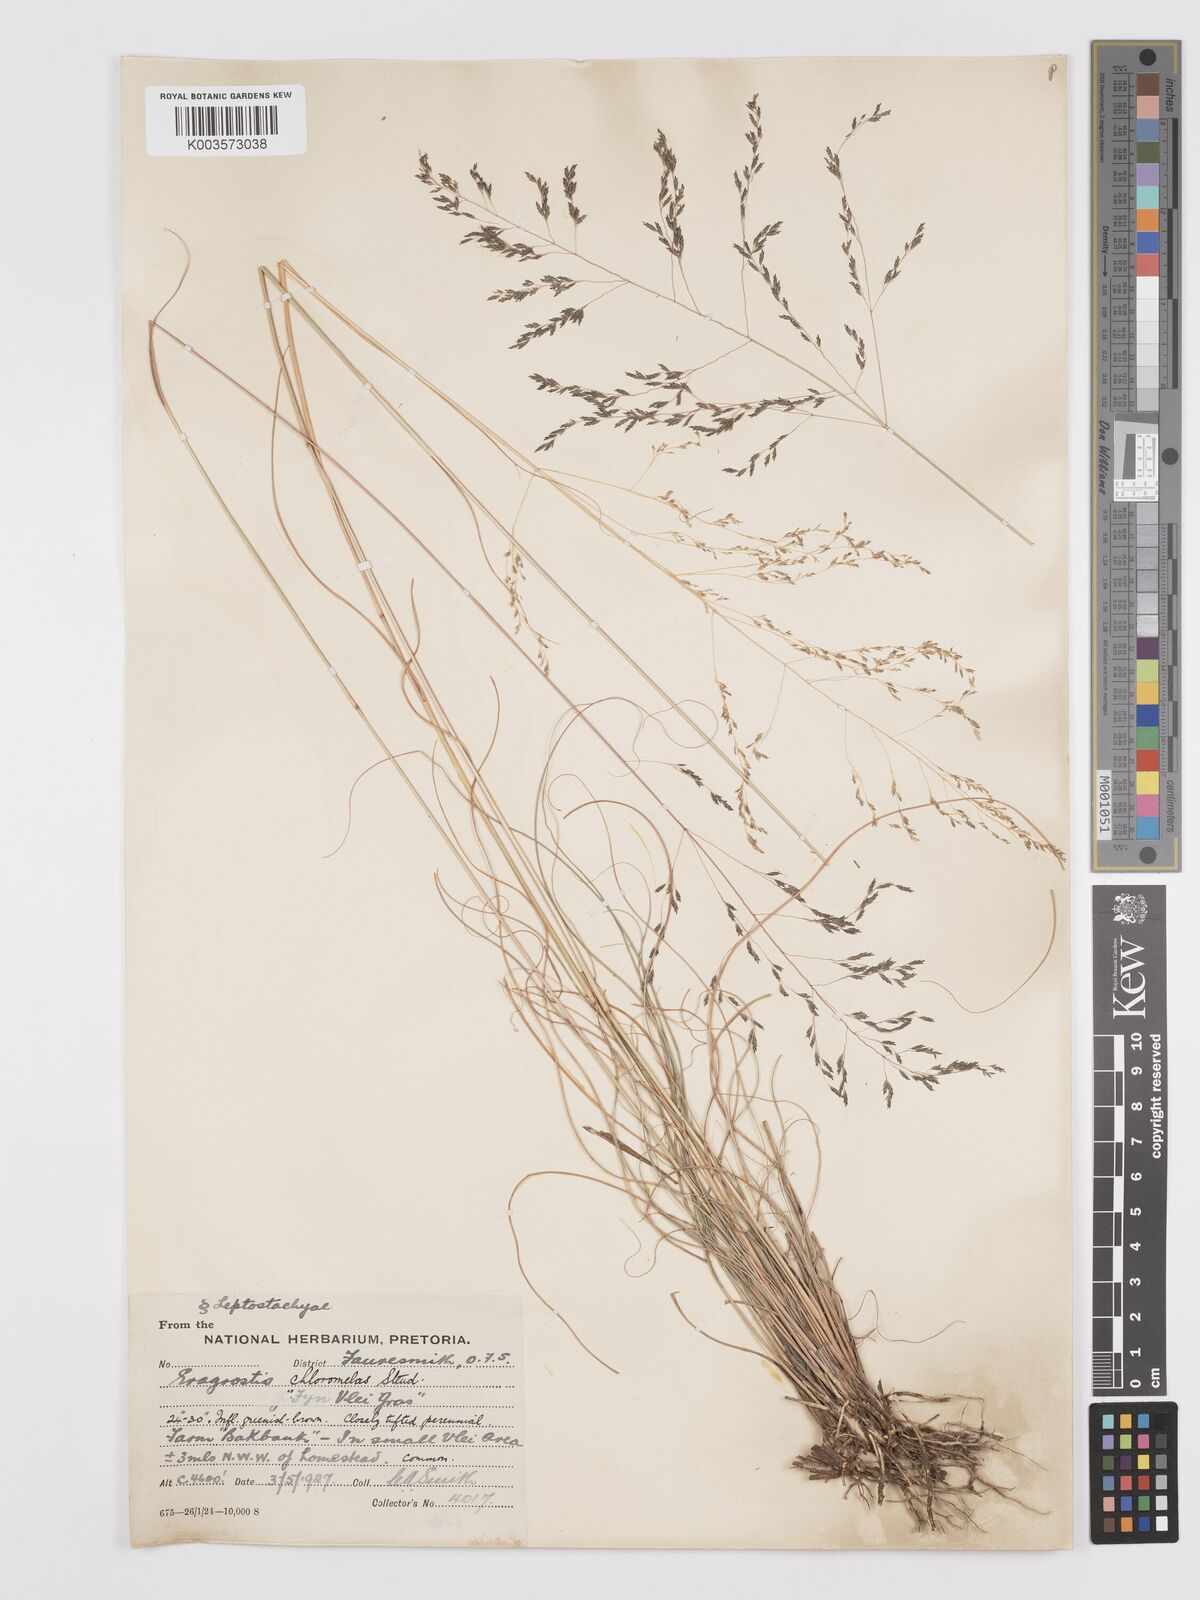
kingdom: Plantae
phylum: Tracheophyta
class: Liliopsida
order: Poales
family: Poaceae
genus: Eragrostis
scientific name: Eragrostis curvula
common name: African love-grass
